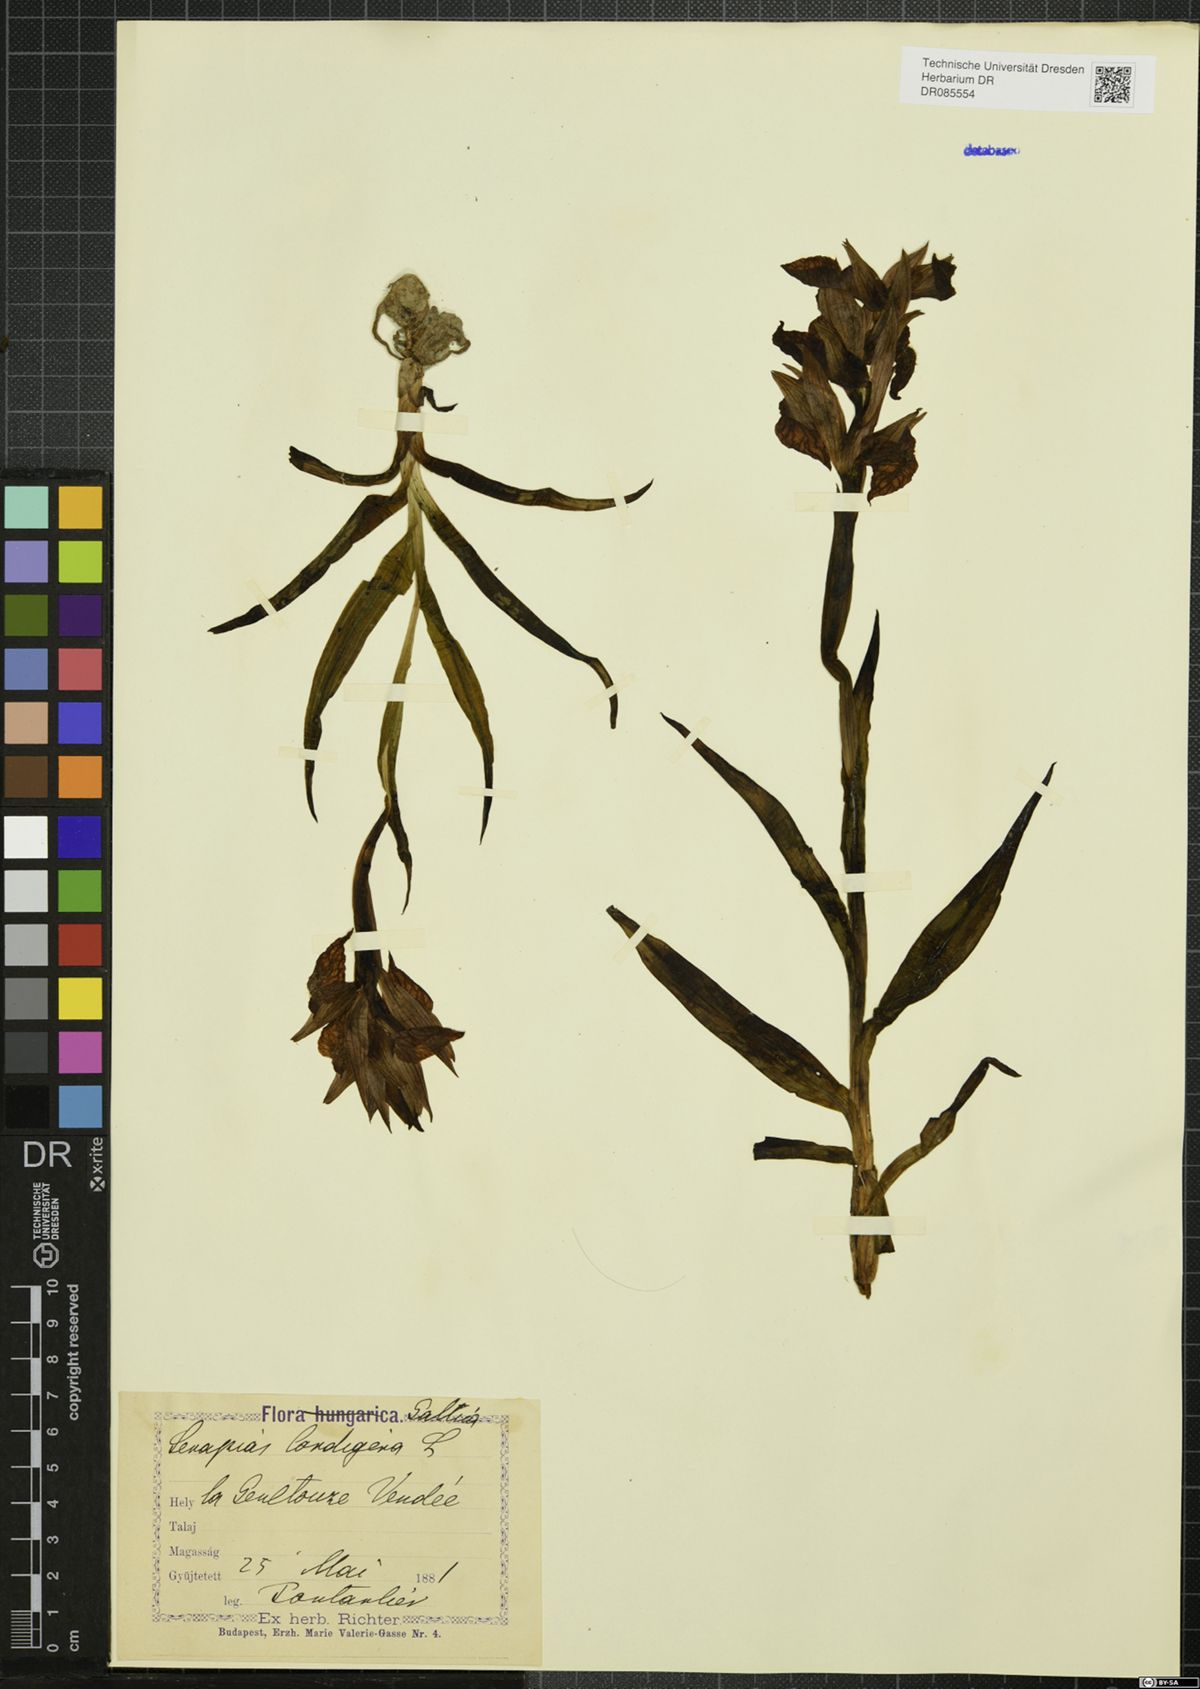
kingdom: Plantae
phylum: Tracheophyta
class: Liliopsida
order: Asparagales
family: Orchidaceae
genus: Serapias
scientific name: Serapias cordigera
